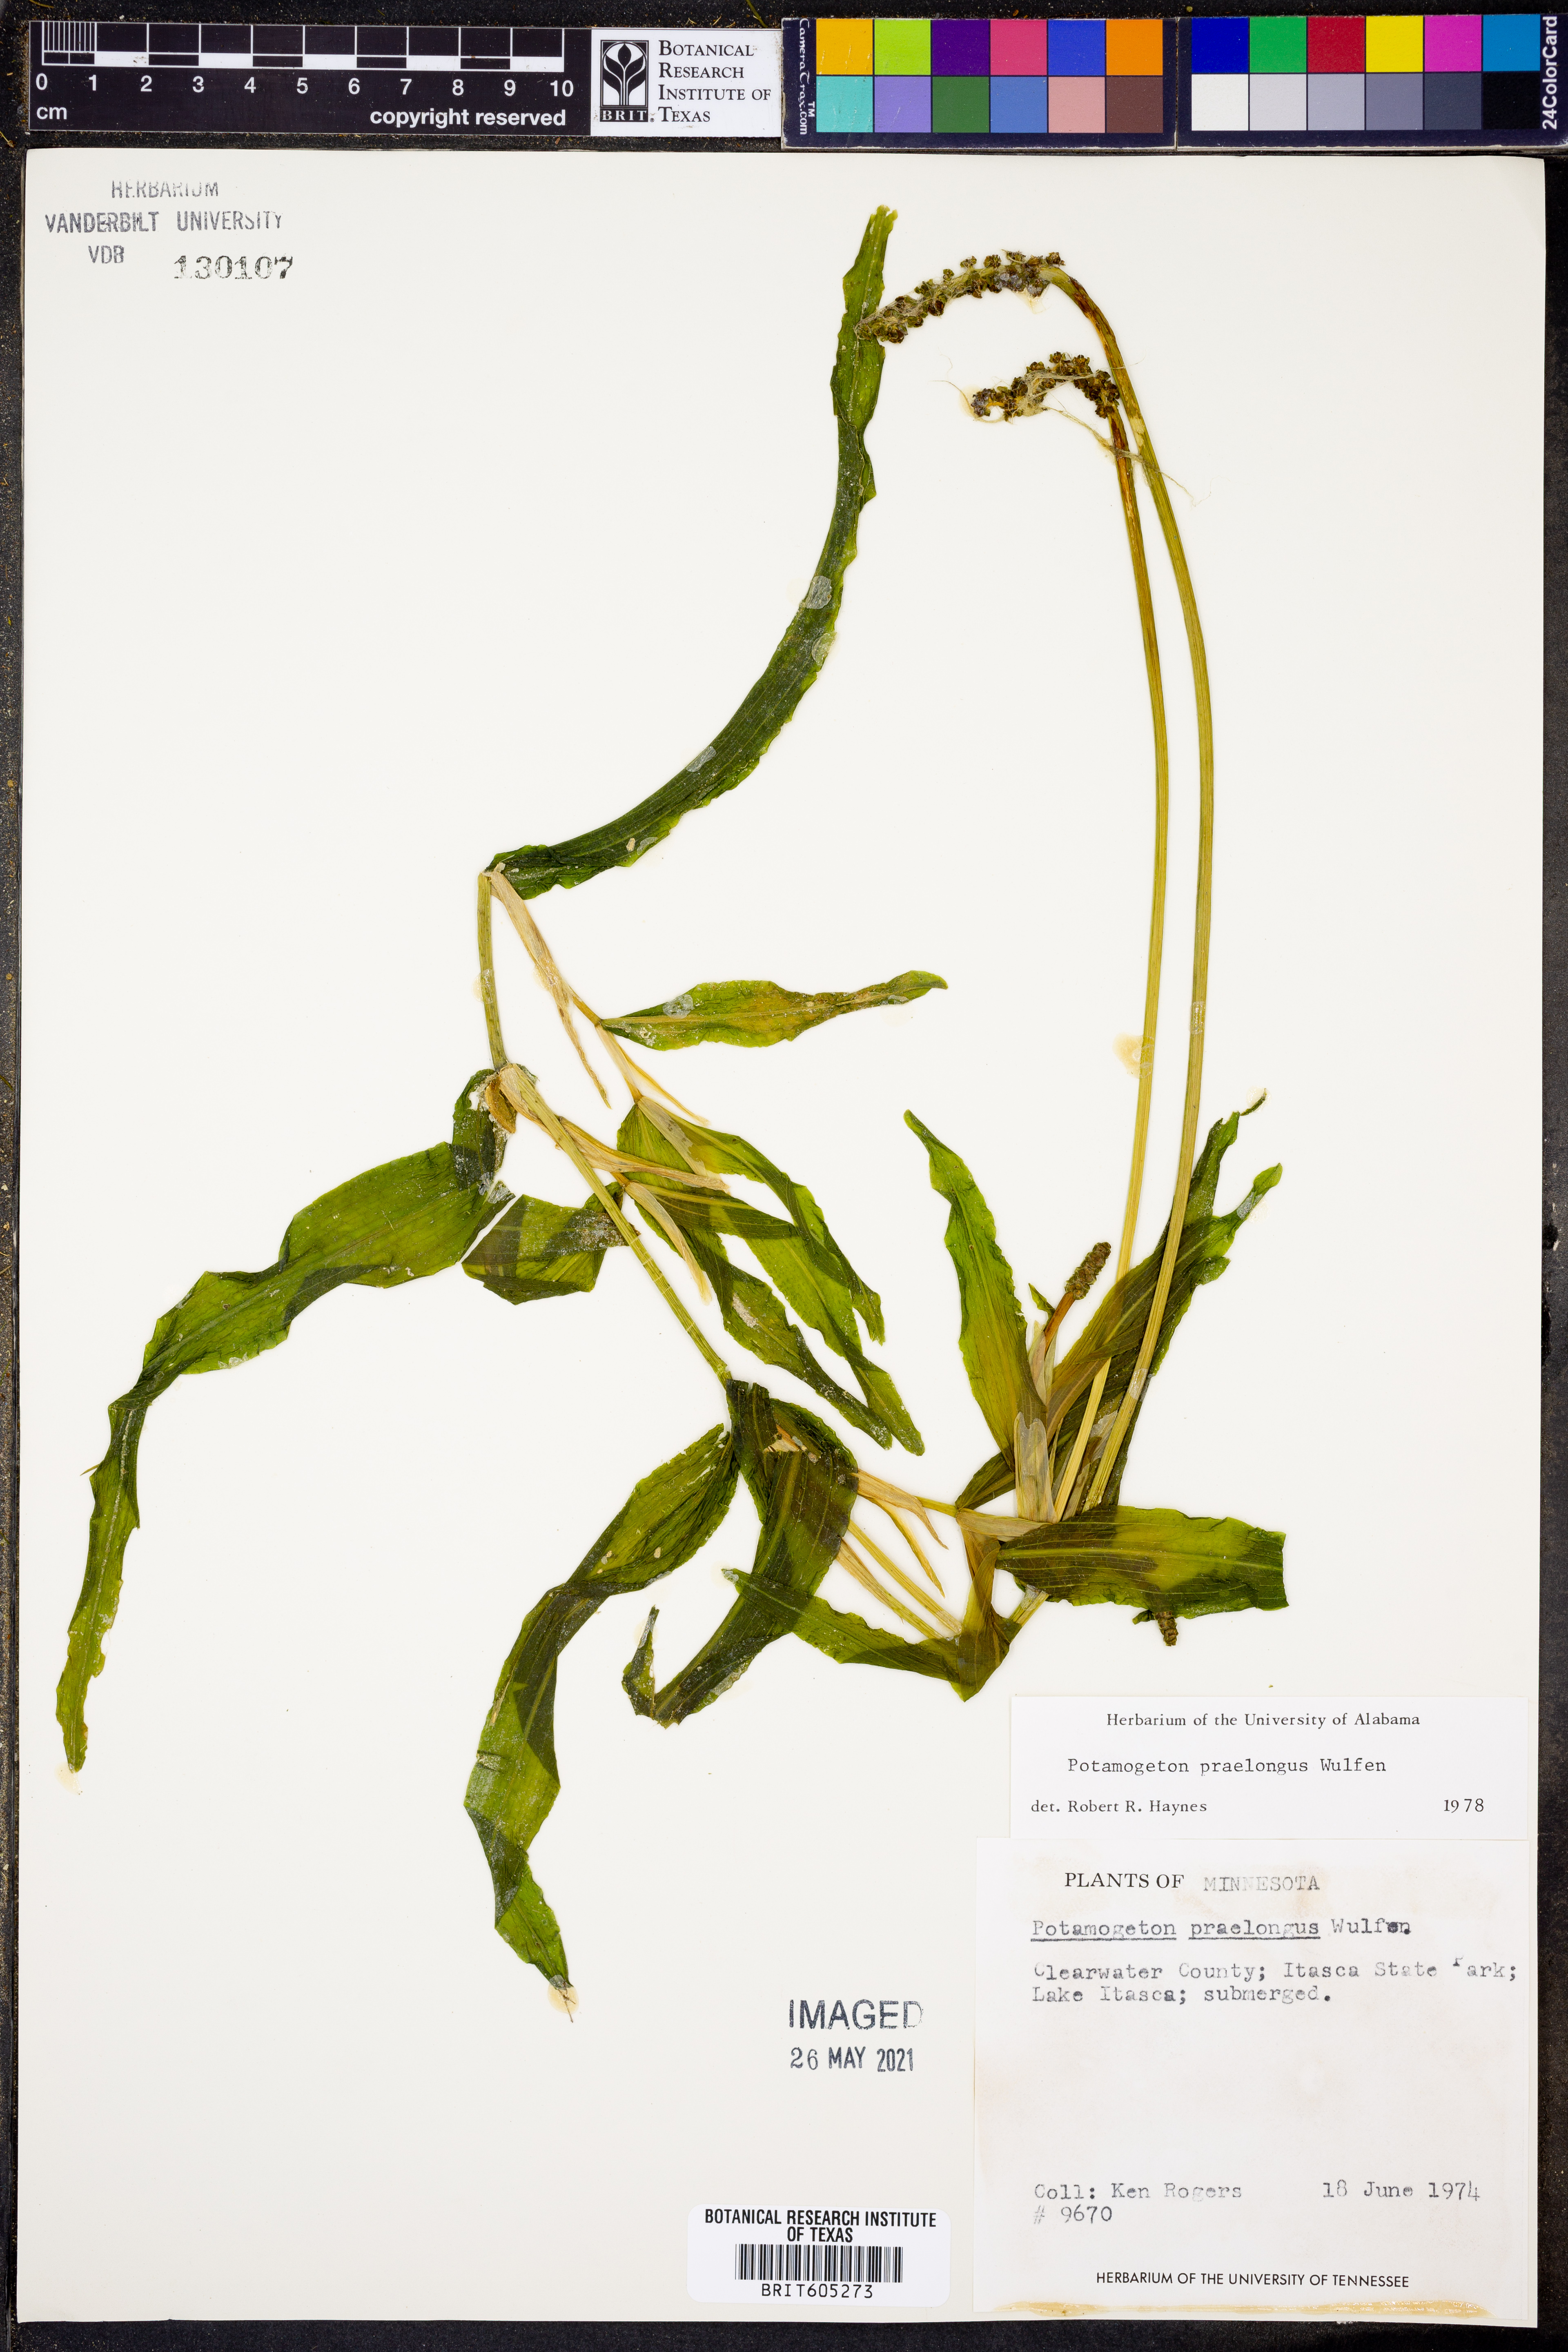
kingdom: Plantae
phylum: Tracheophyta
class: Liliopsida
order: Alismatales
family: Potamogetonaceae
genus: Potamogeton
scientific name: Potamogeton praelongus
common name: Long-stalked pondweed
